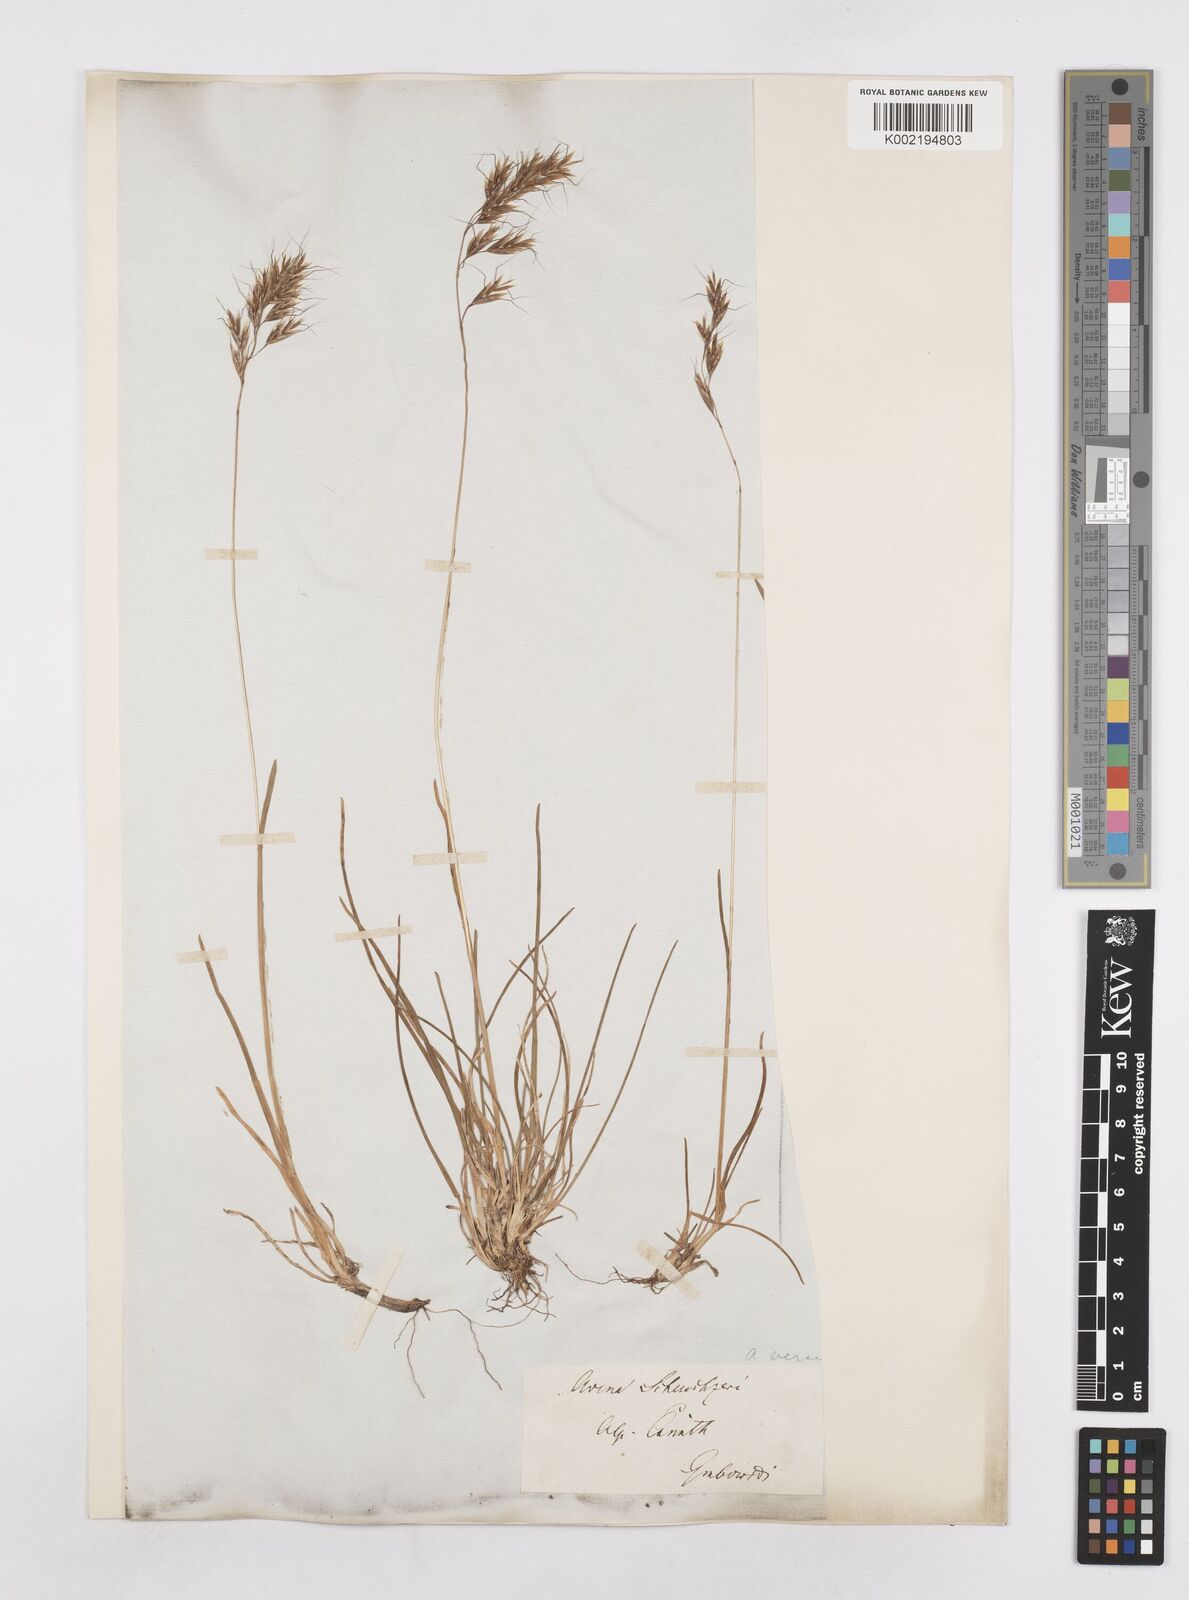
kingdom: Plantae
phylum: Tracheophyta
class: Liliopsida
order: Poales
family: Poaceae
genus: Helictochloa
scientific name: Helictochloa versicolor
